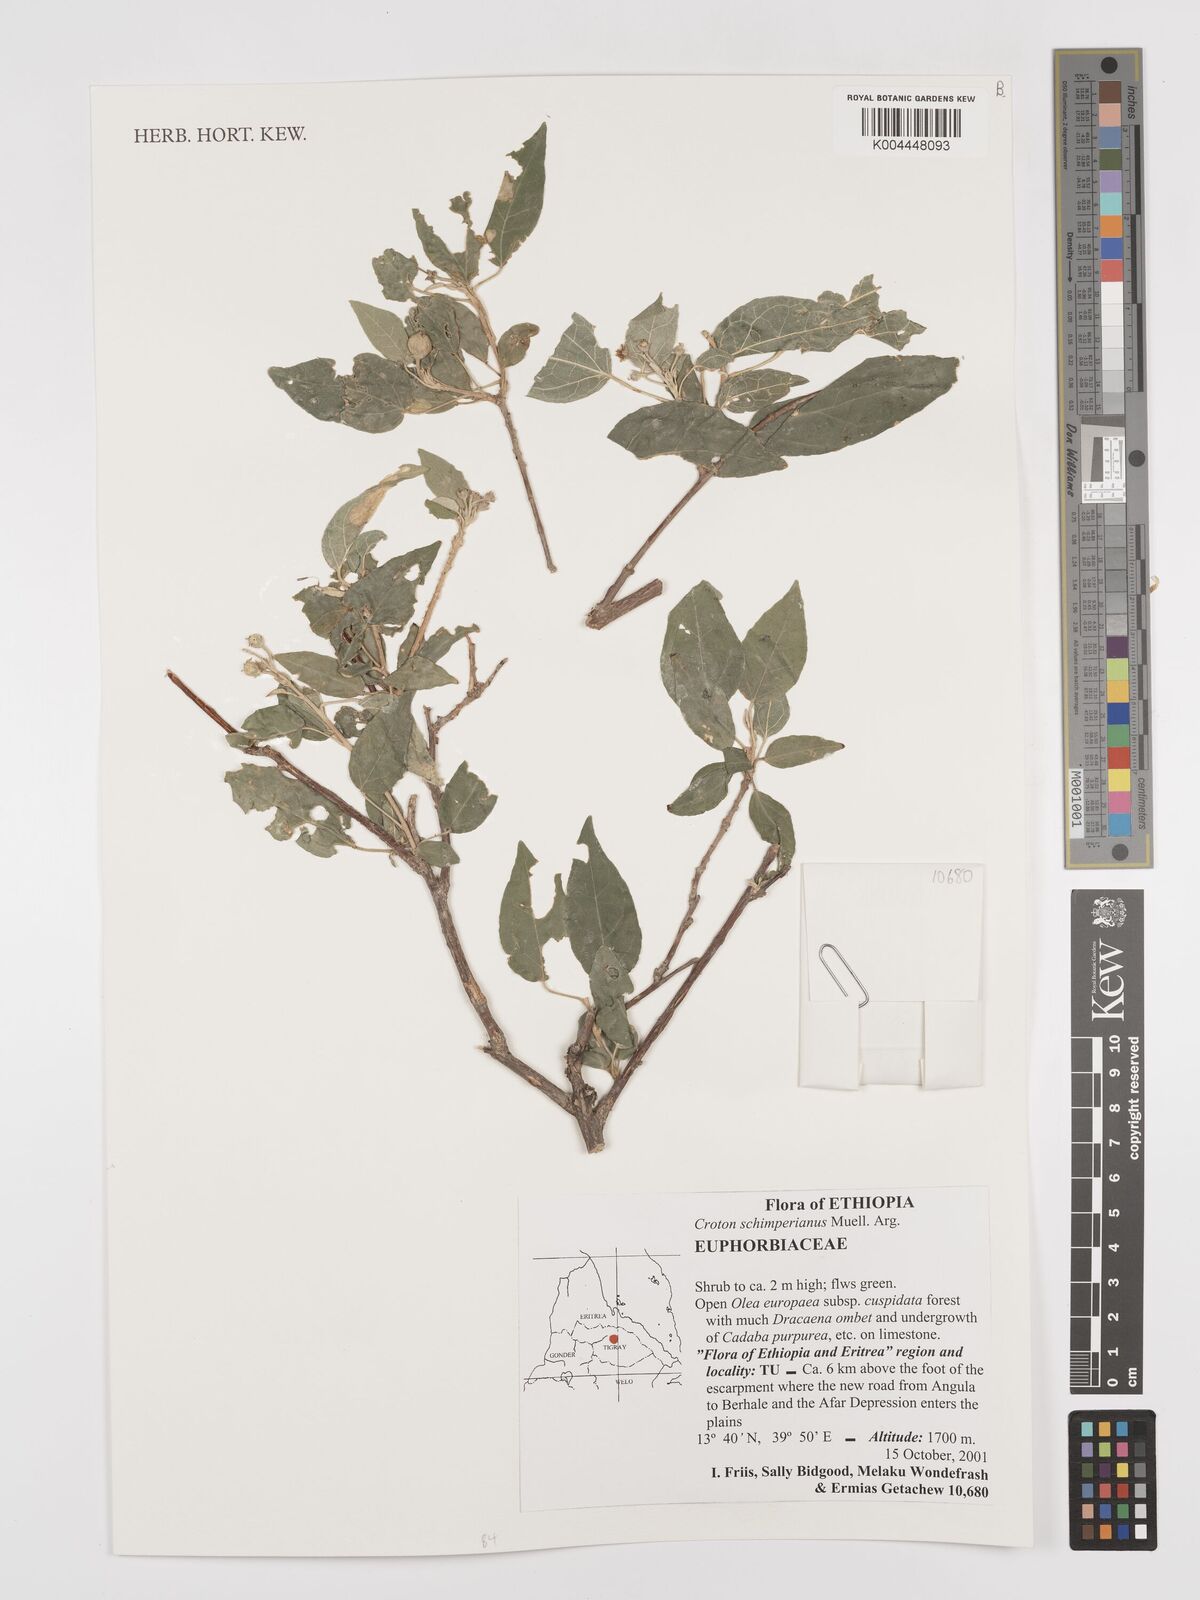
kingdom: Plantae
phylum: Tracheophyta
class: Magnoliopsida
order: Malpighiales
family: Euphorbiaceae
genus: Croton
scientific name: Croton schimperianus
